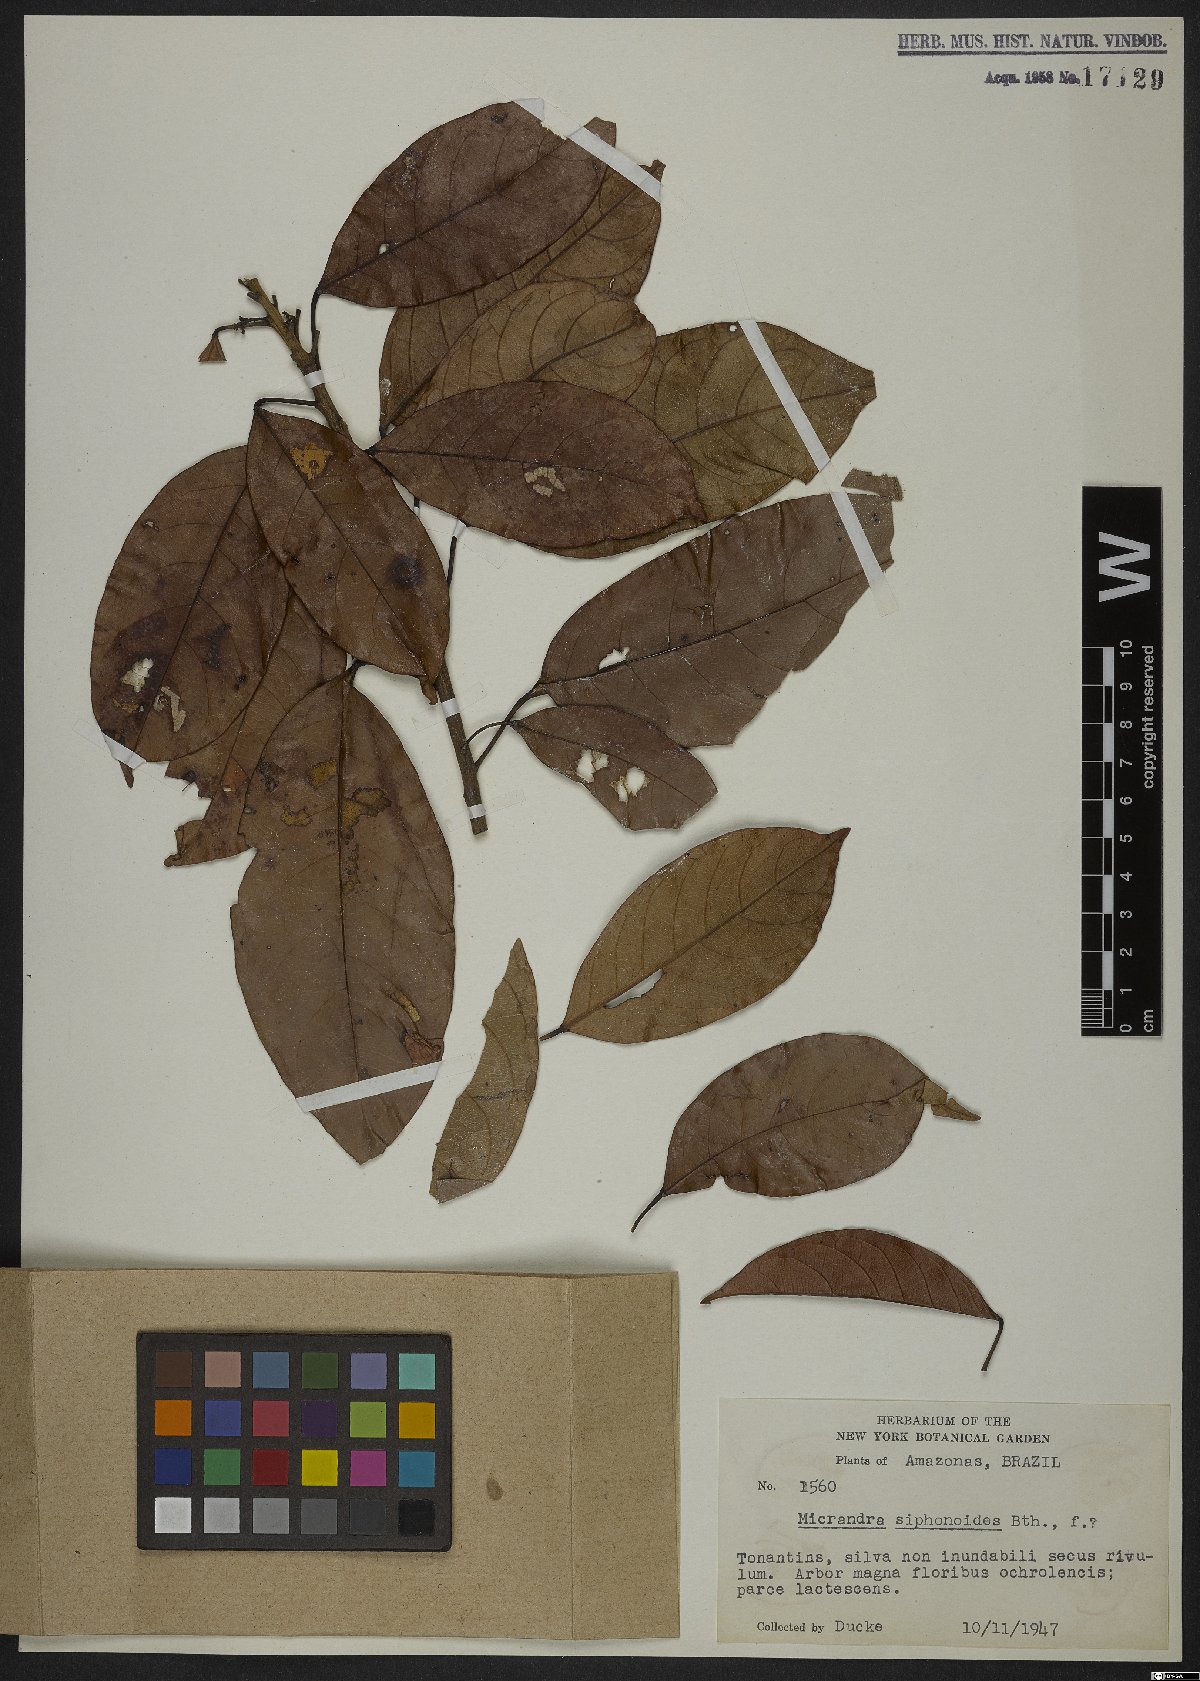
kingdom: Plantae
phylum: Tracheophyta
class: Magnoliopsida
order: Malpighiales
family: Euphorbiaceae
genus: Micrandra
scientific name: Micrandra siphonioides
